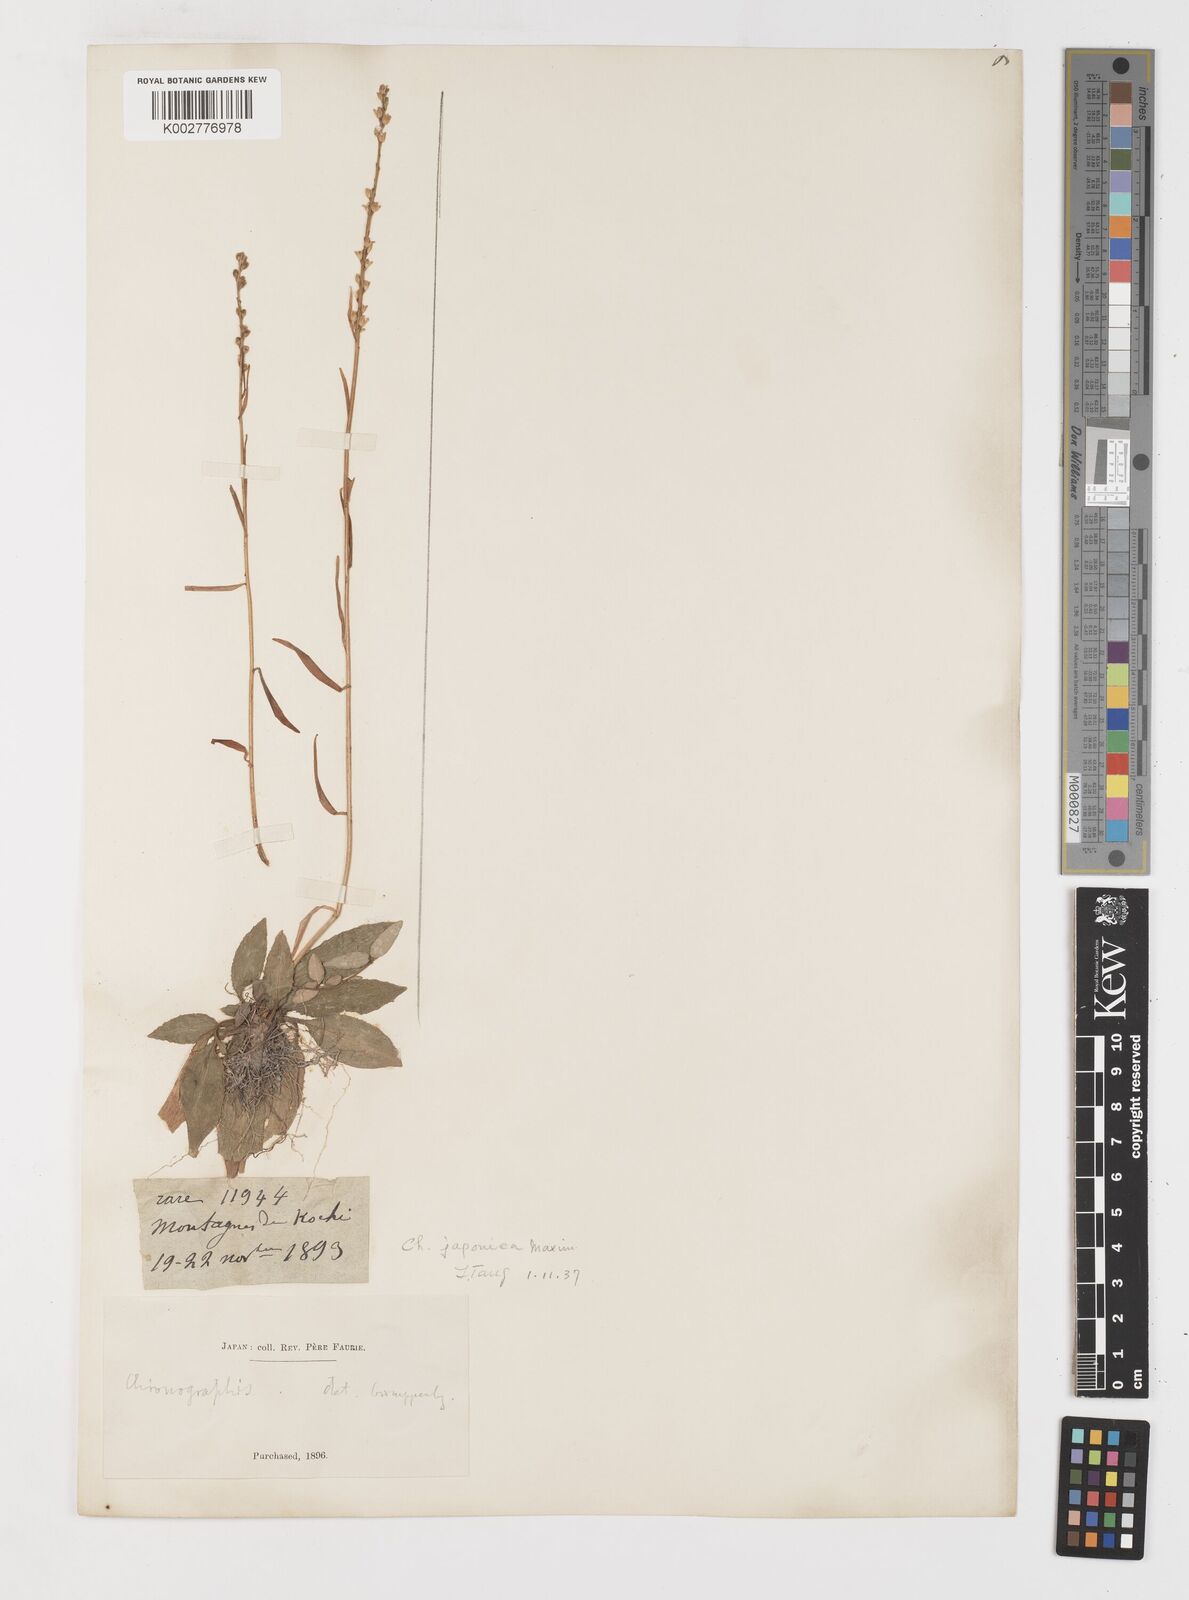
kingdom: Plantae
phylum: Tracheophyta
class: Liliopsida
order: Liliales
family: Melanthiaceae
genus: Chamaelirium
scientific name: Chamaelirium japonicum
